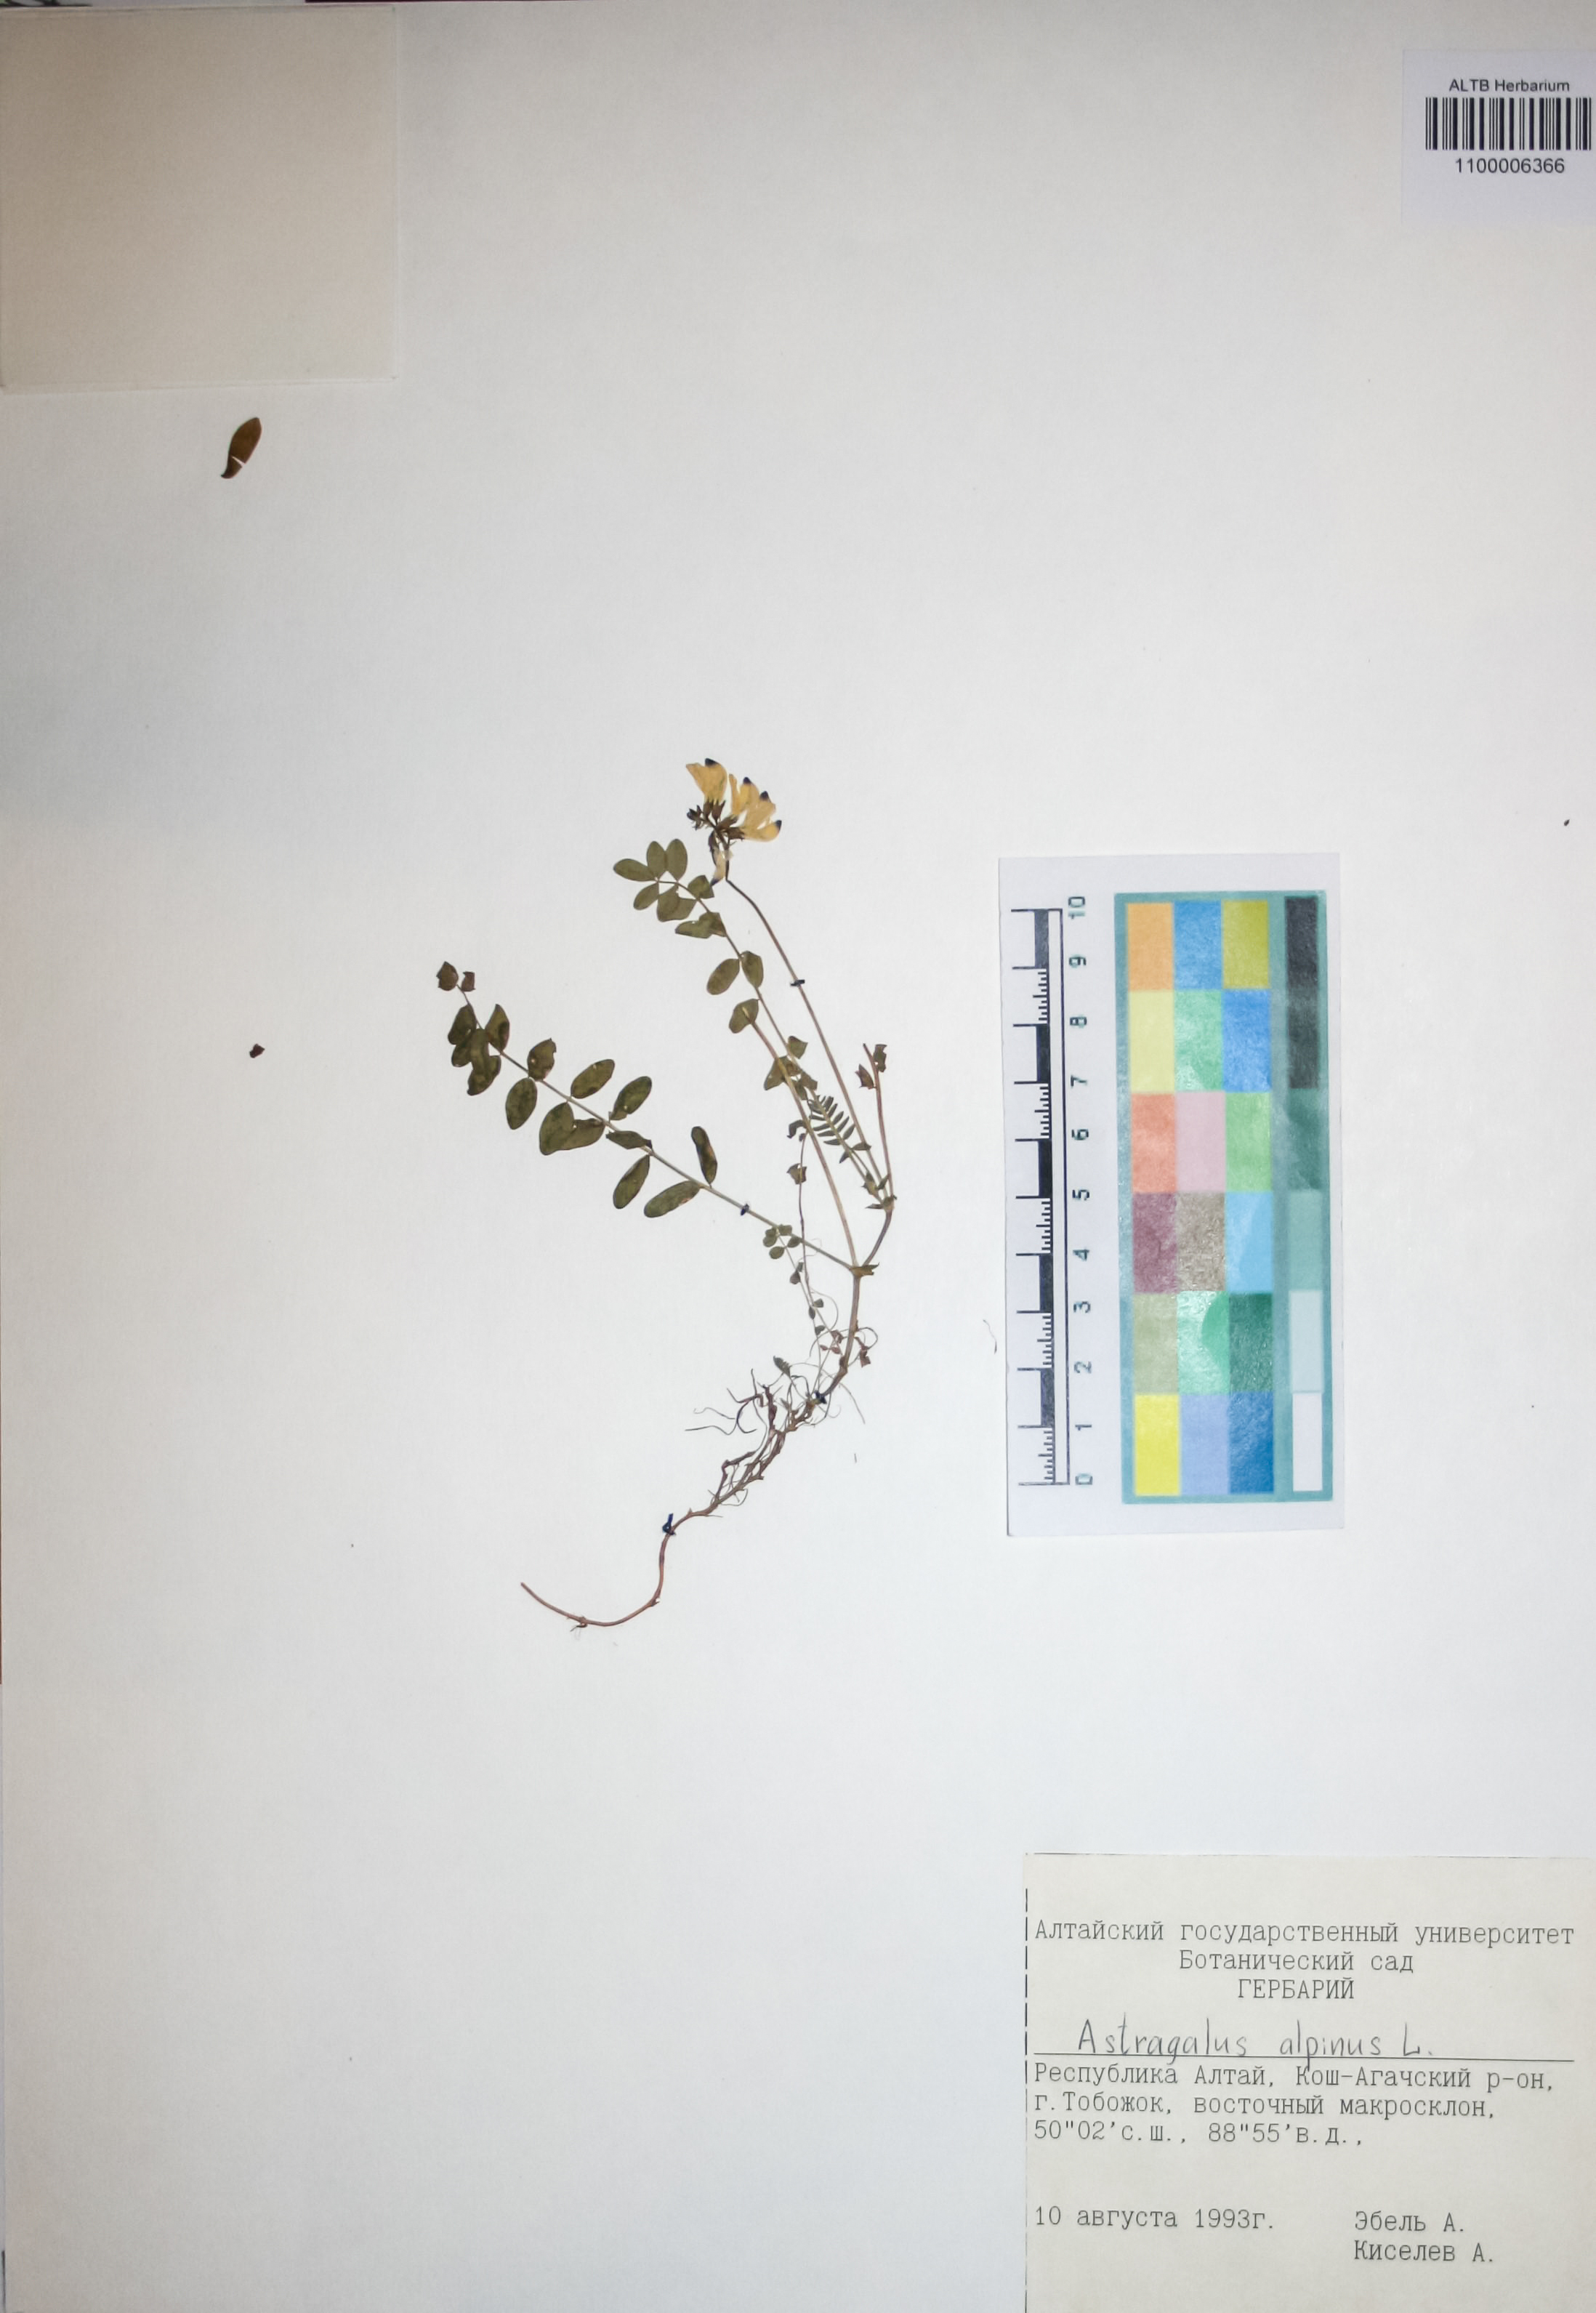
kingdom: Plantae
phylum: Tracheophyta
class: Magnoliopsida
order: Fabales
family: Fabaceae
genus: Astragalus
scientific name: Astragalus alpinus
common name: Alpine milk-vetch
